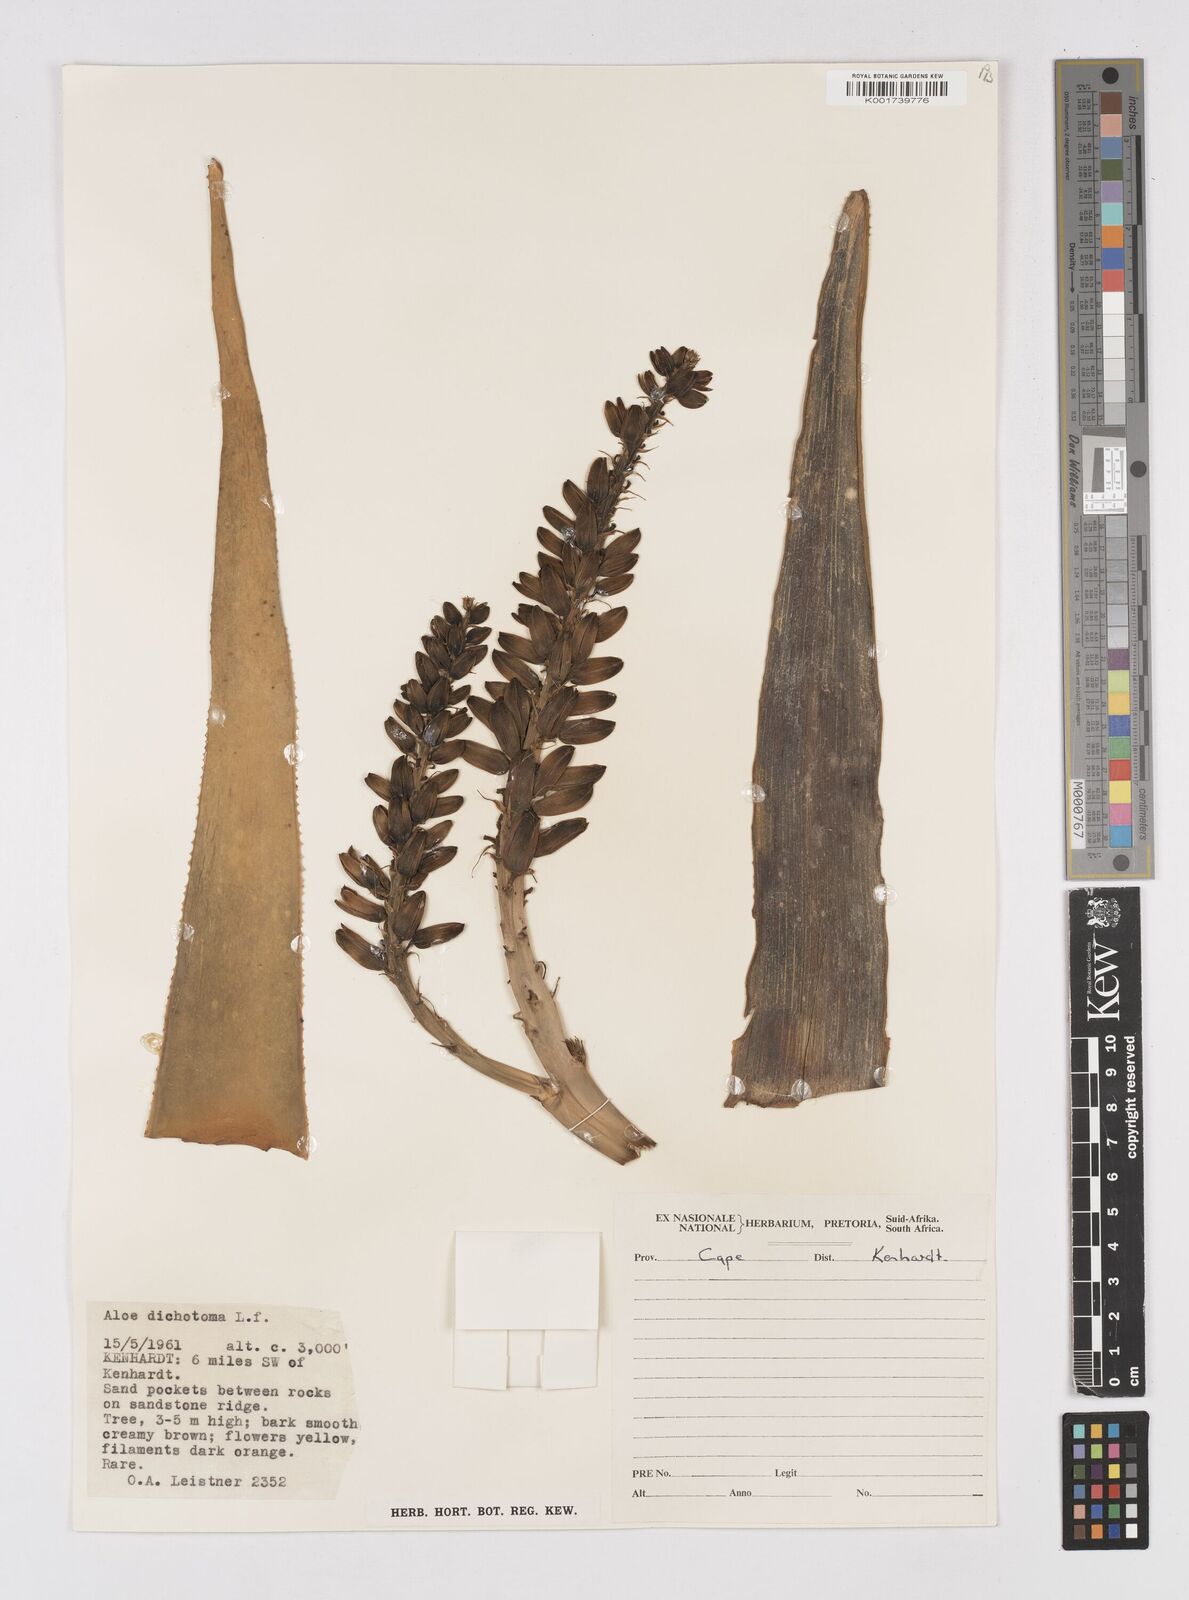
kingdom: Plantae
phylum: Tracheophyta
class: Liliopsida
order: Asparagales
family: Asphodelaceae
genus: Aloidendron
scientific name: Aloidendron dichotomum
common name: Quiver tree
